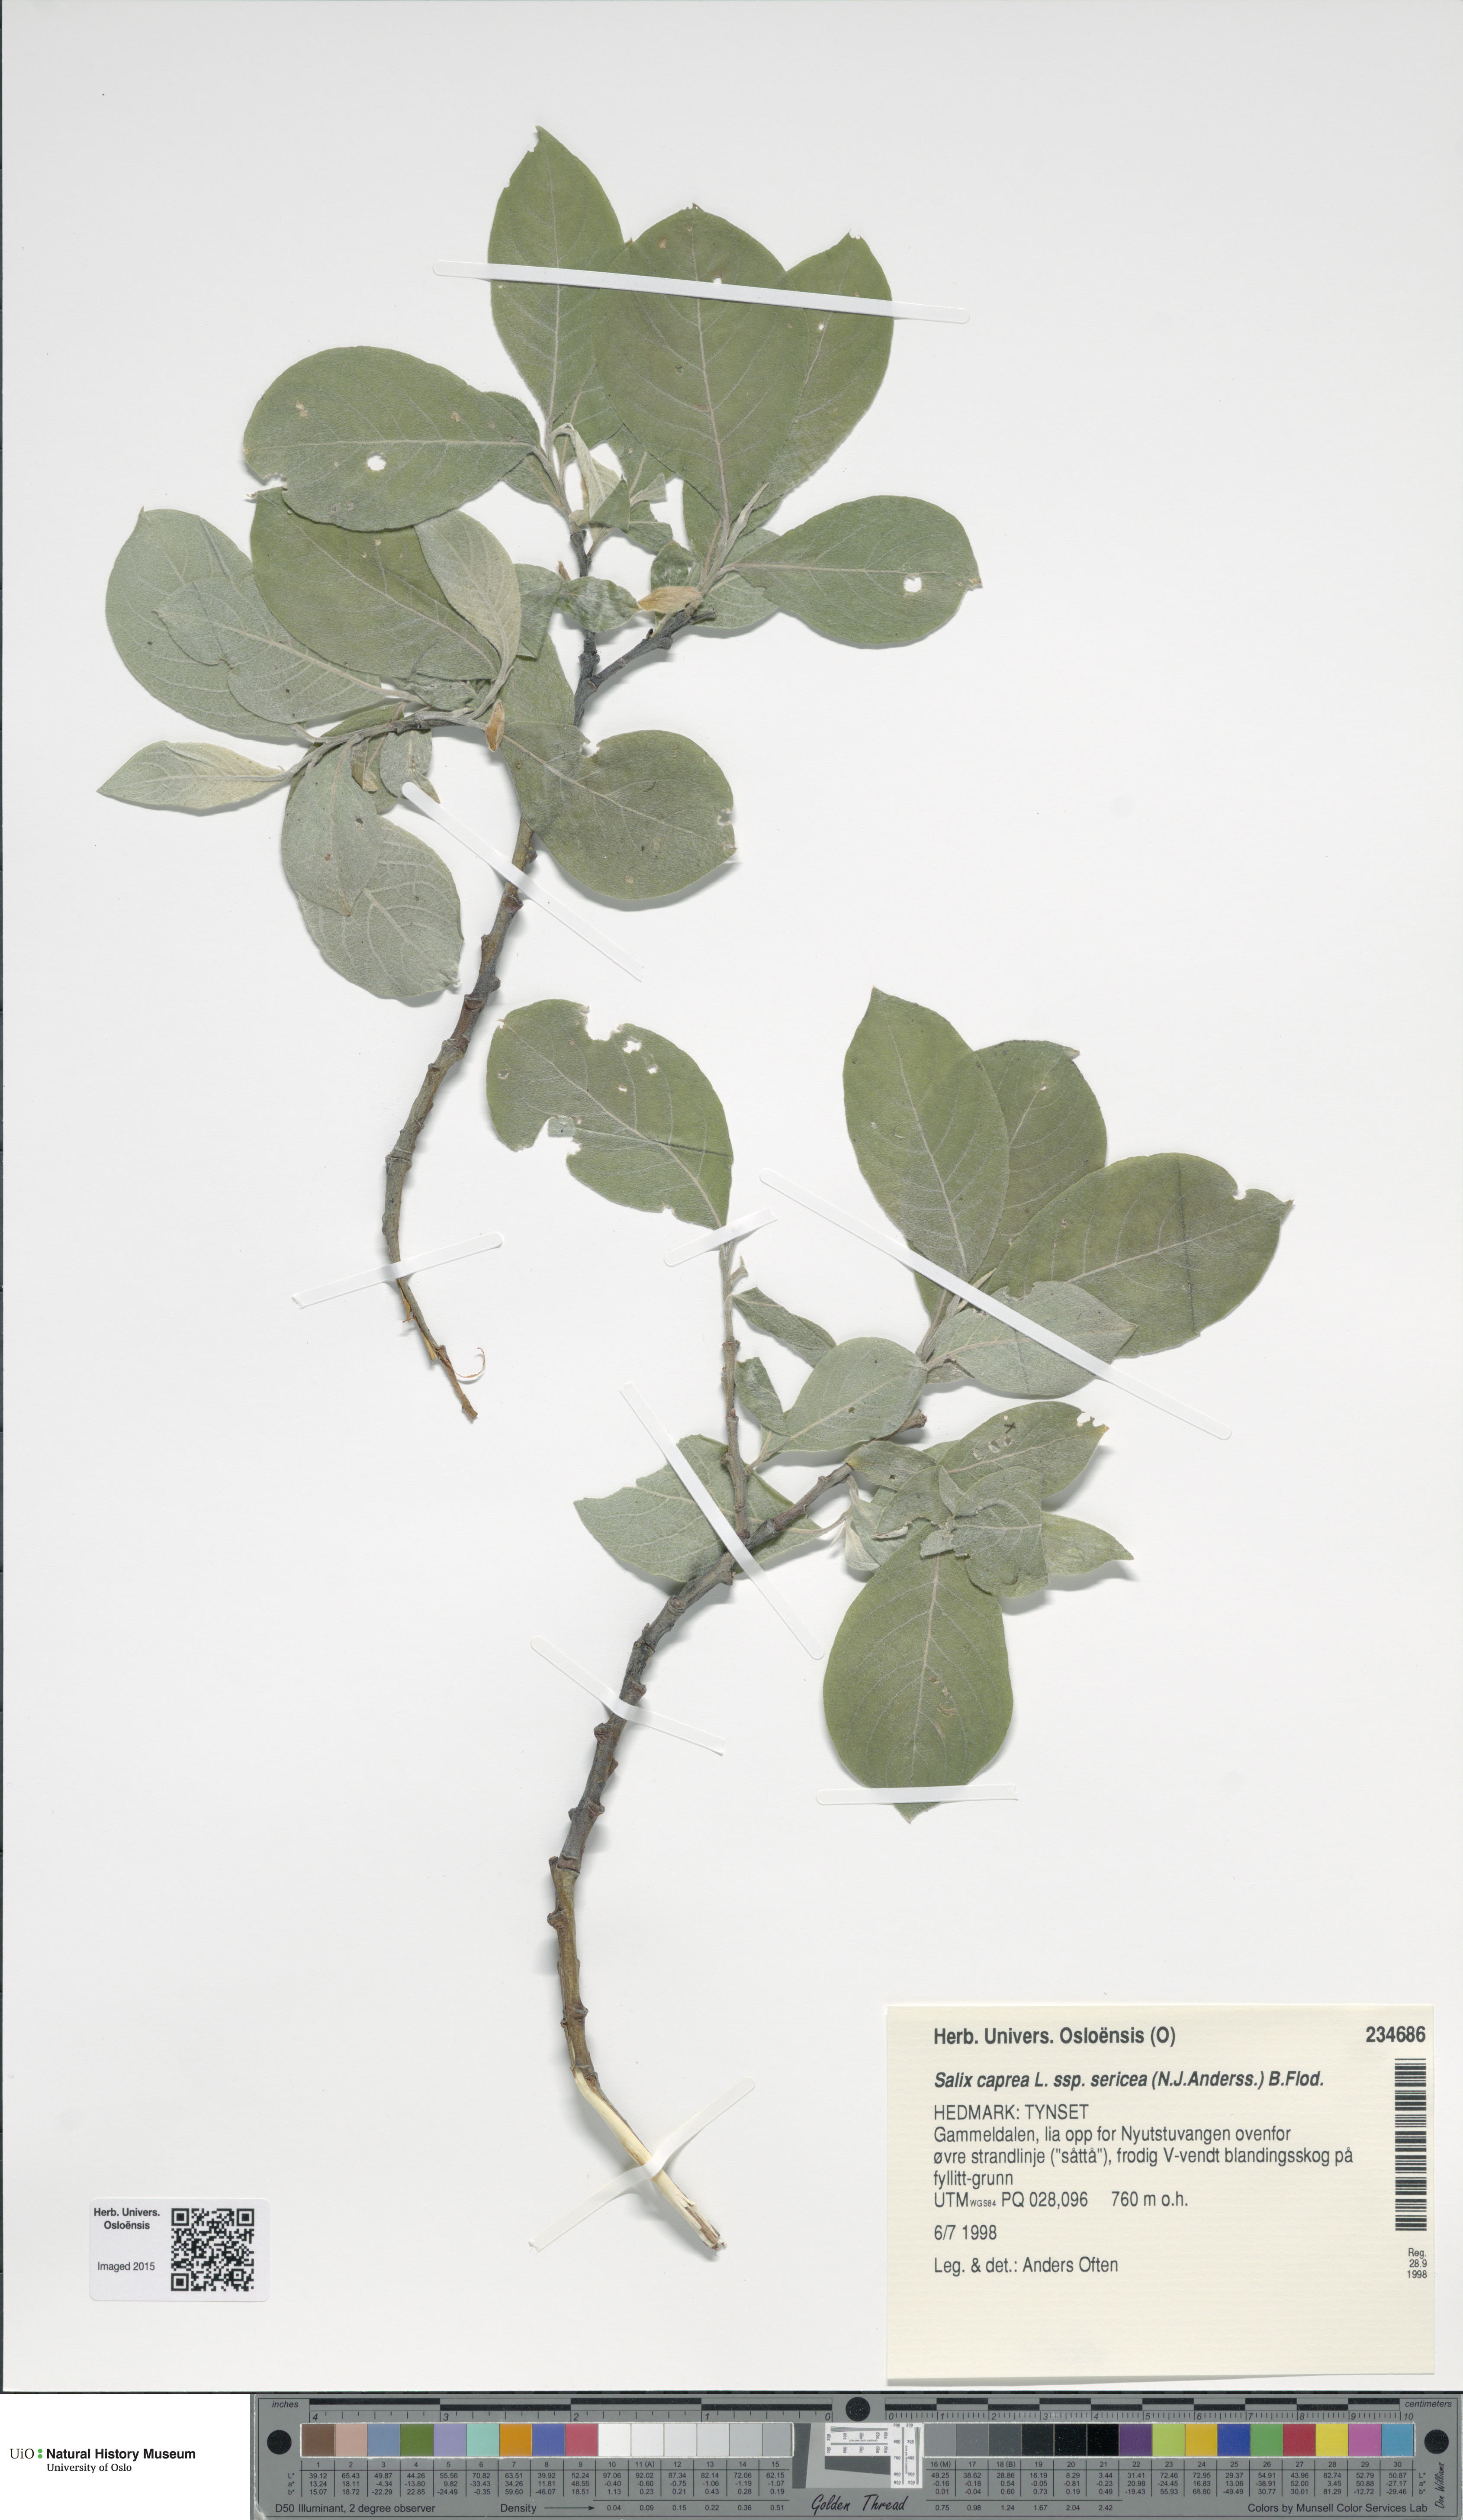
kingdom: Plantae
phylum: Tracheophyta
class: Magnoliopsida
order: Malpighiales
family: Salicaceae
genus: Salix
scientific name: Salix caprea
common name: Goat willow
